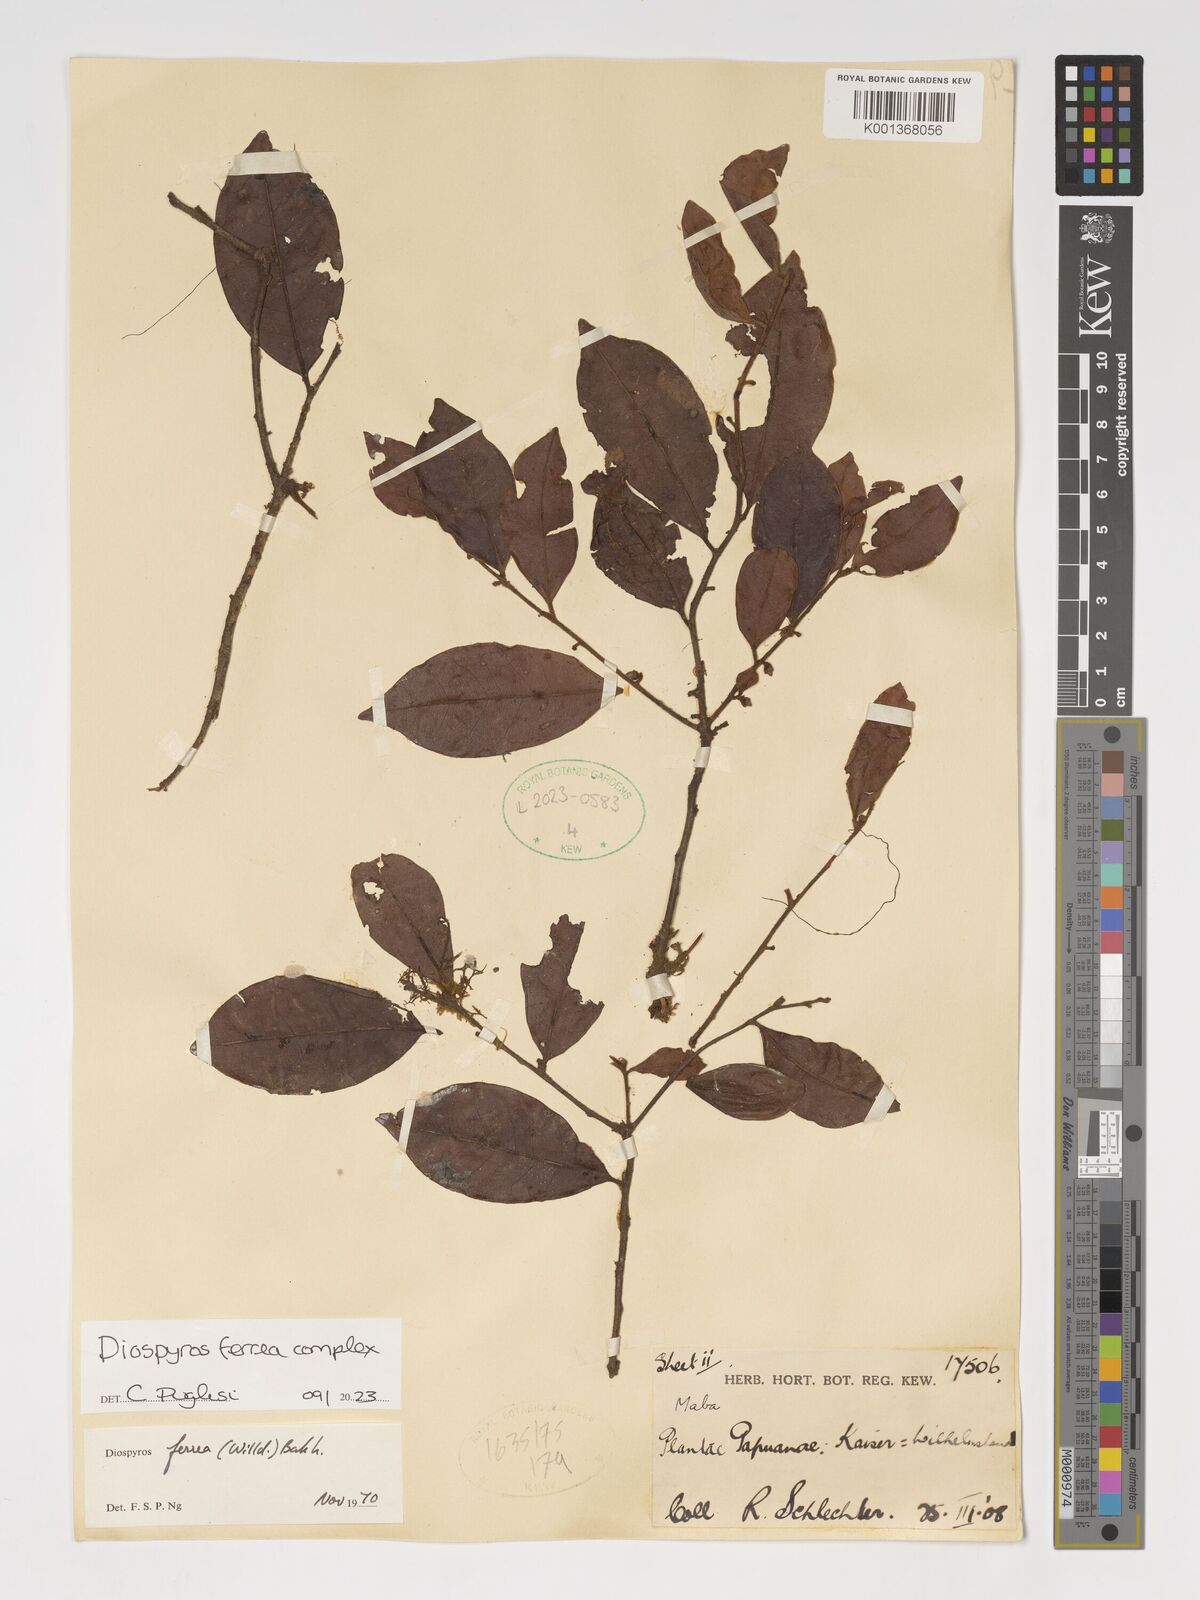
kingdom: Plantae
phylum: Tracheophyta
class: Magnoliopsida
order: Ericales
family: Ebenaceae
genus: Diospyros
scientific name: Diospyros ferrea
